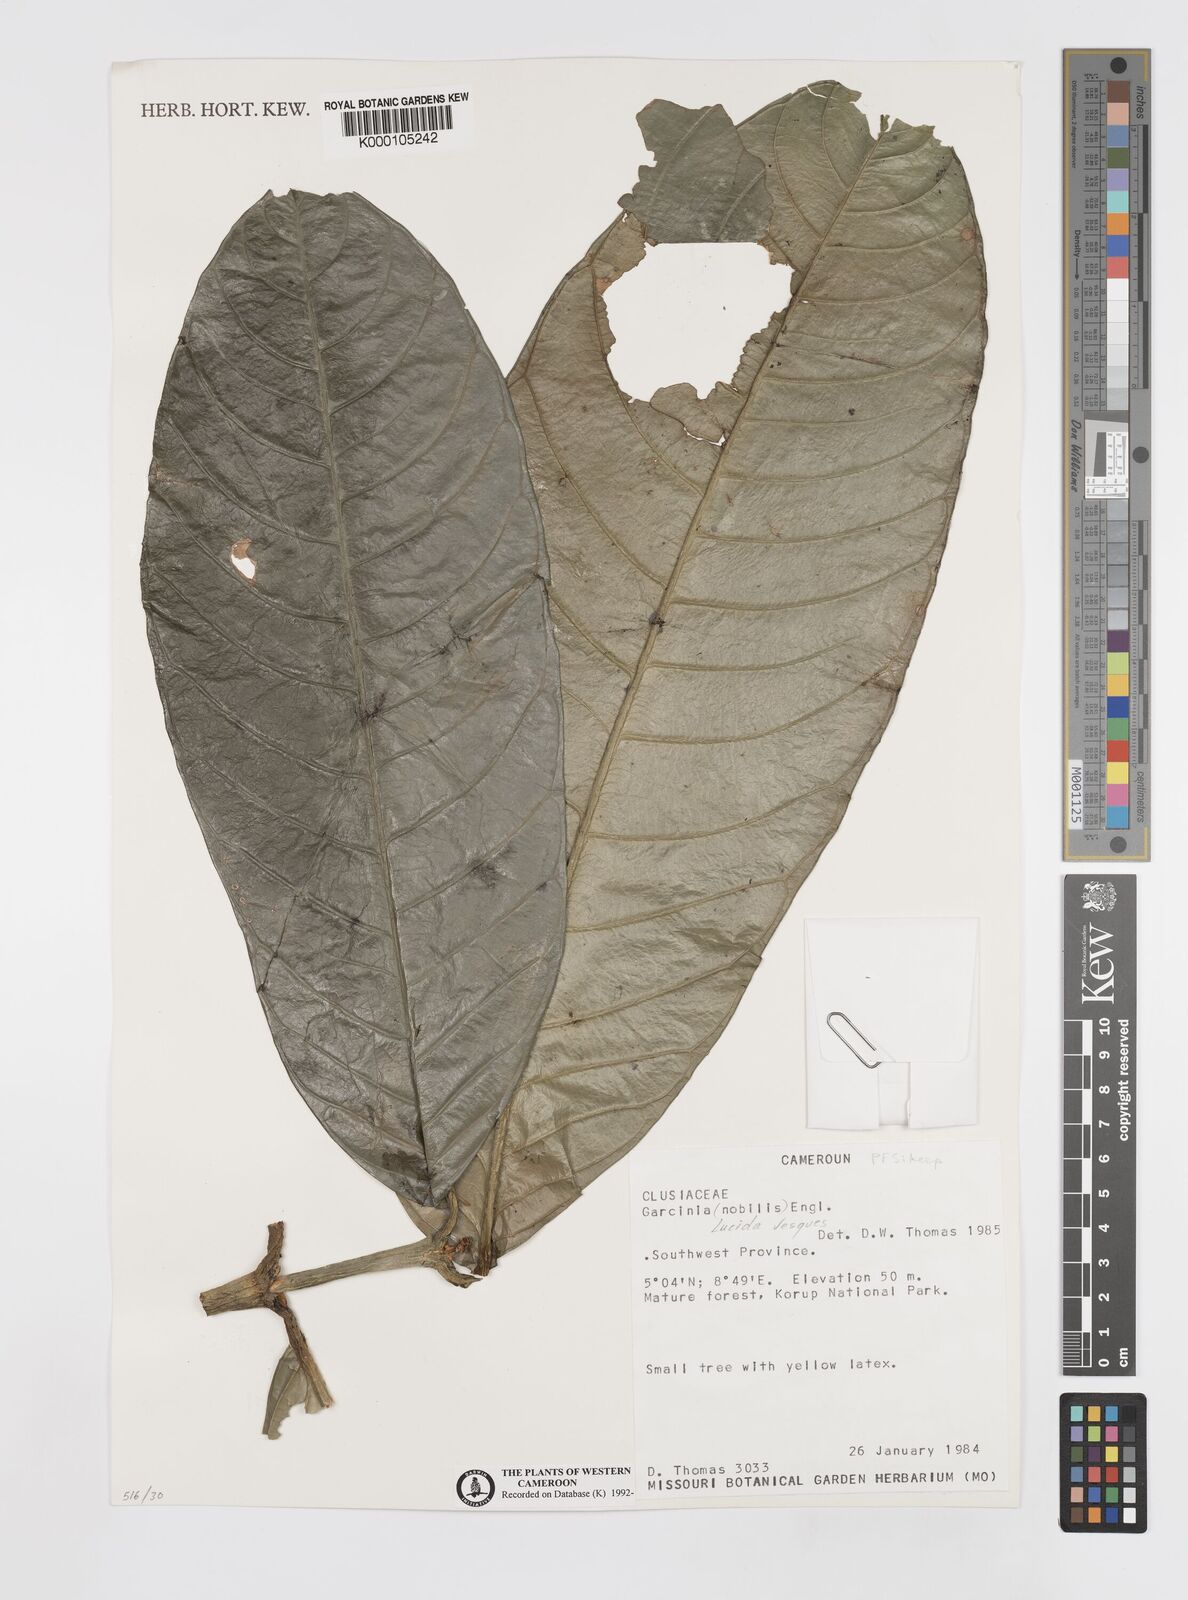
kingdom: Plantae
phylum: Tracheophyta
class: Magnoliopsida
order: Malpighiales
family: Clusiaceae
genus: Garcinia
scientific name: Garcinia lucida
